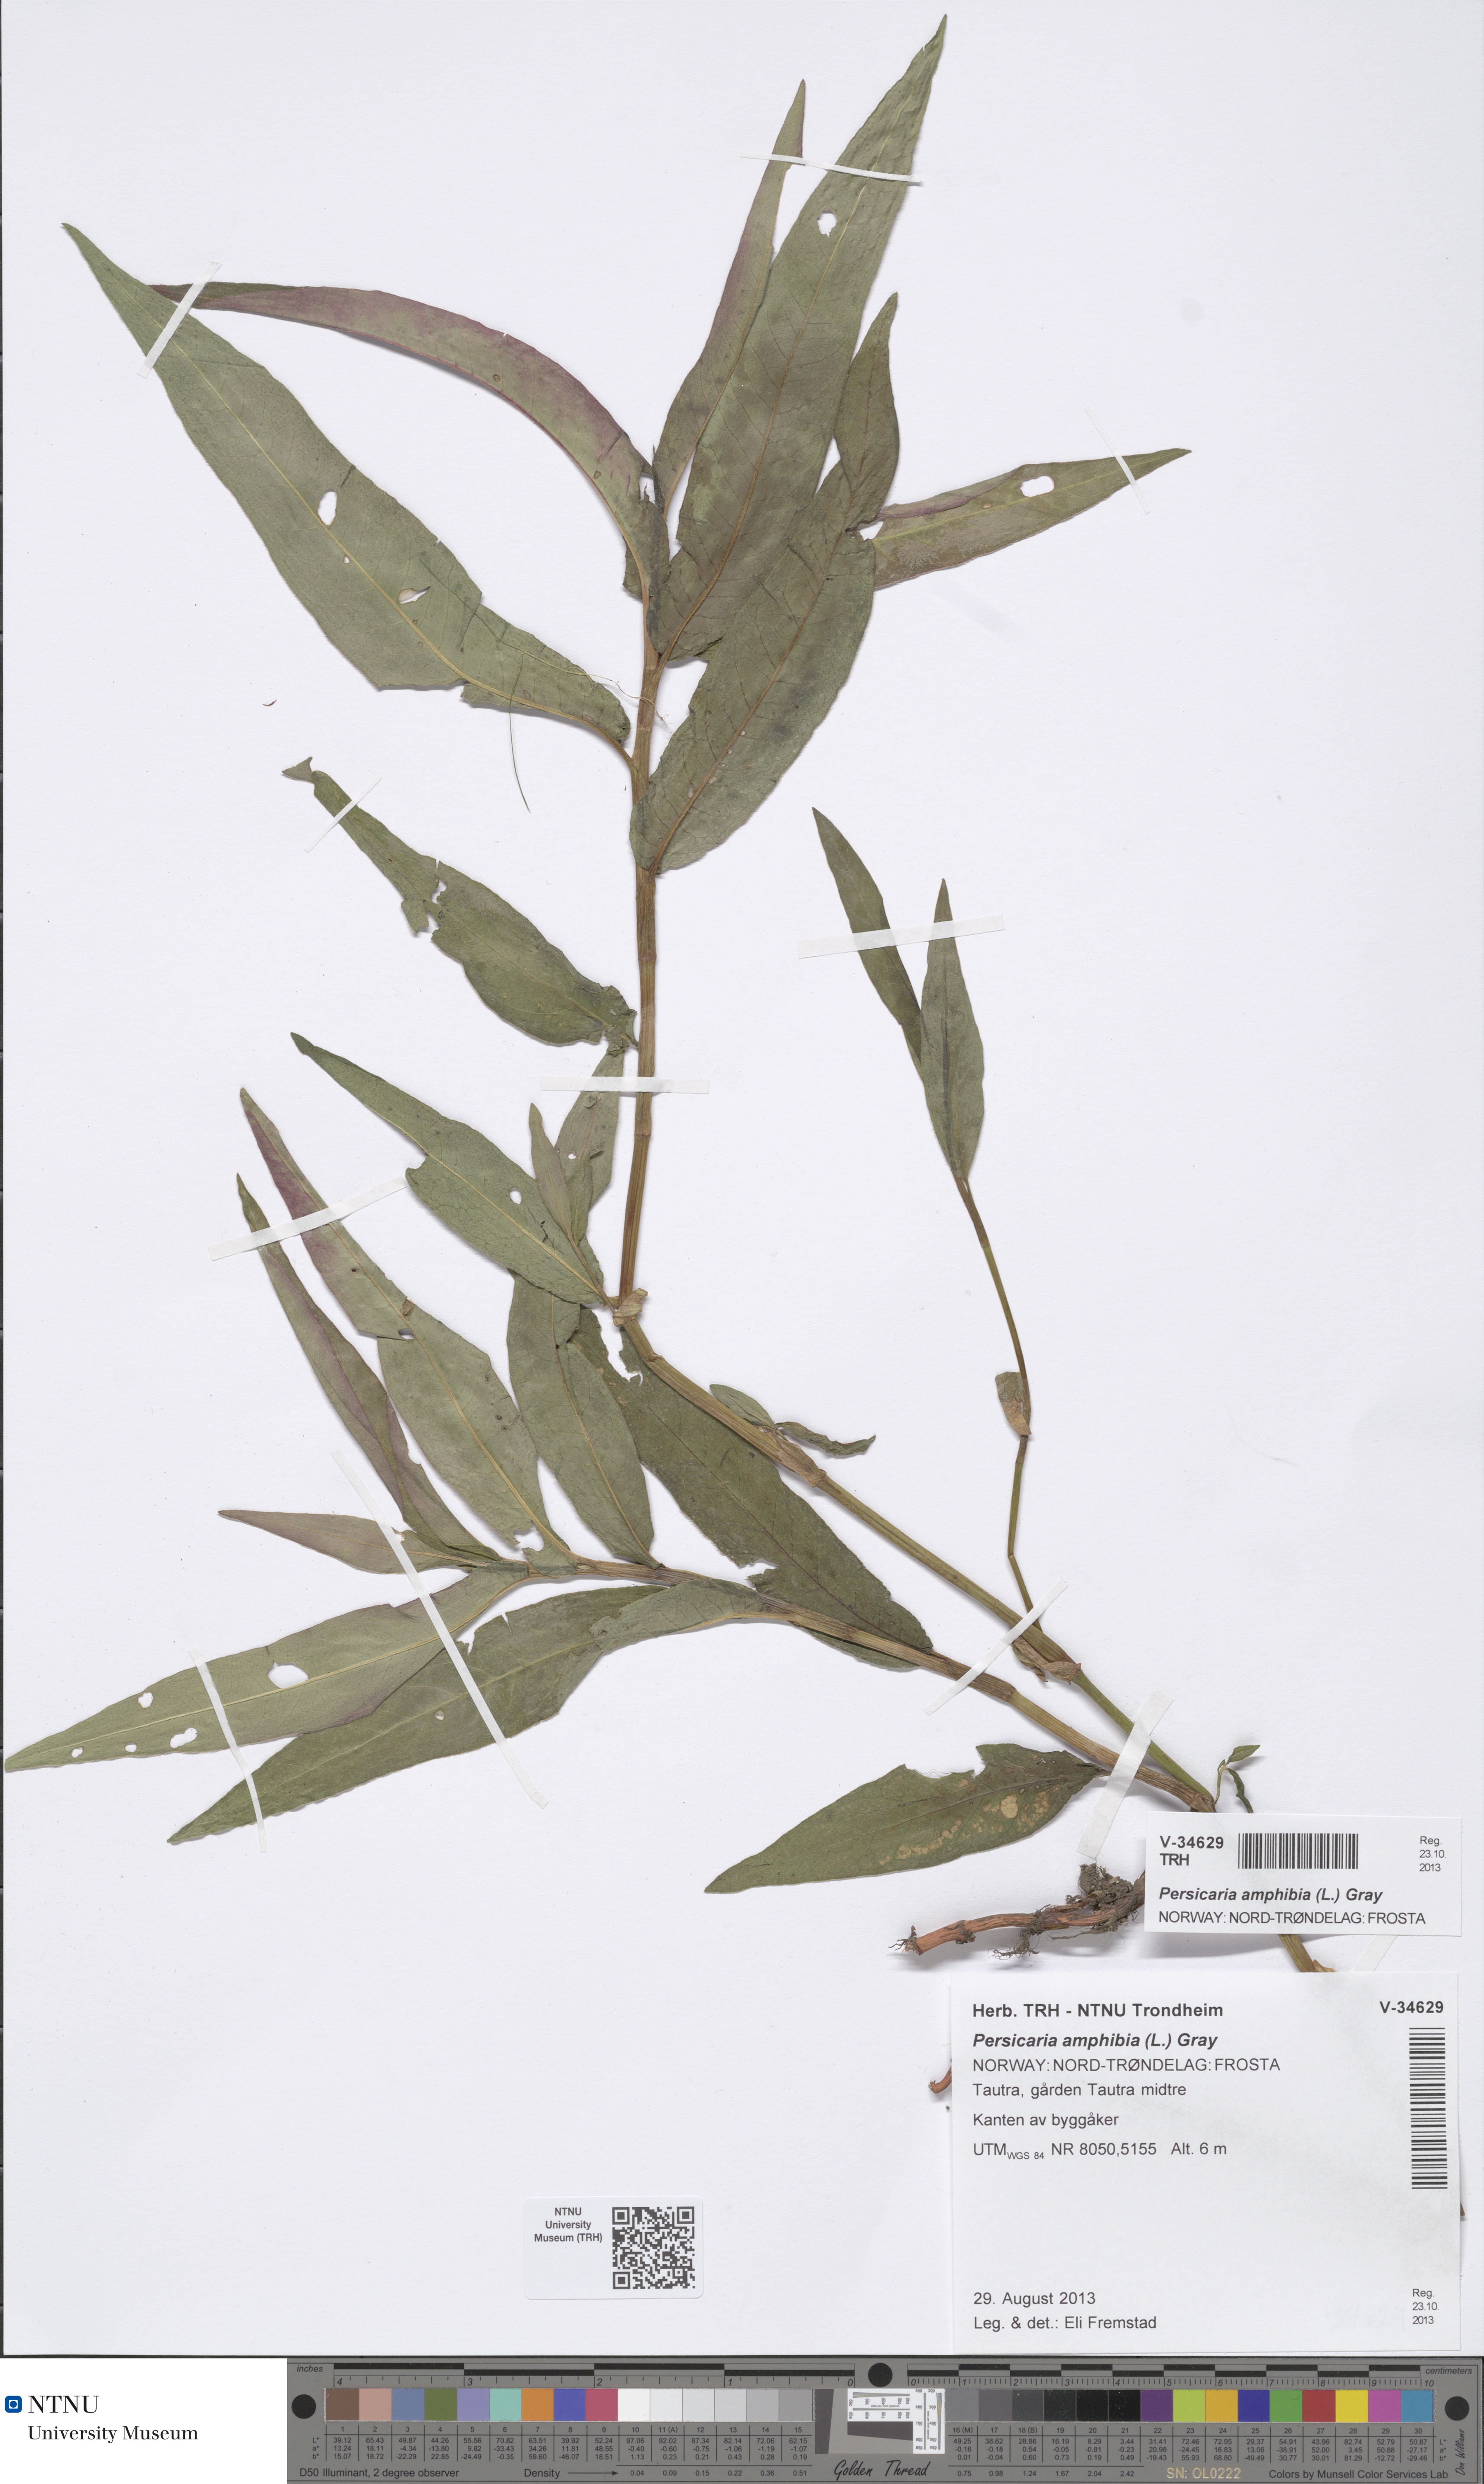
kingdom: Plantae
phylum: Tracheophyta
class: Magnoliopsida
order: Caryophyllales
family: Polygonaceae
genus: Persicaria
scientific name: Persicaria amphibia
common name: Amphibious bistort
